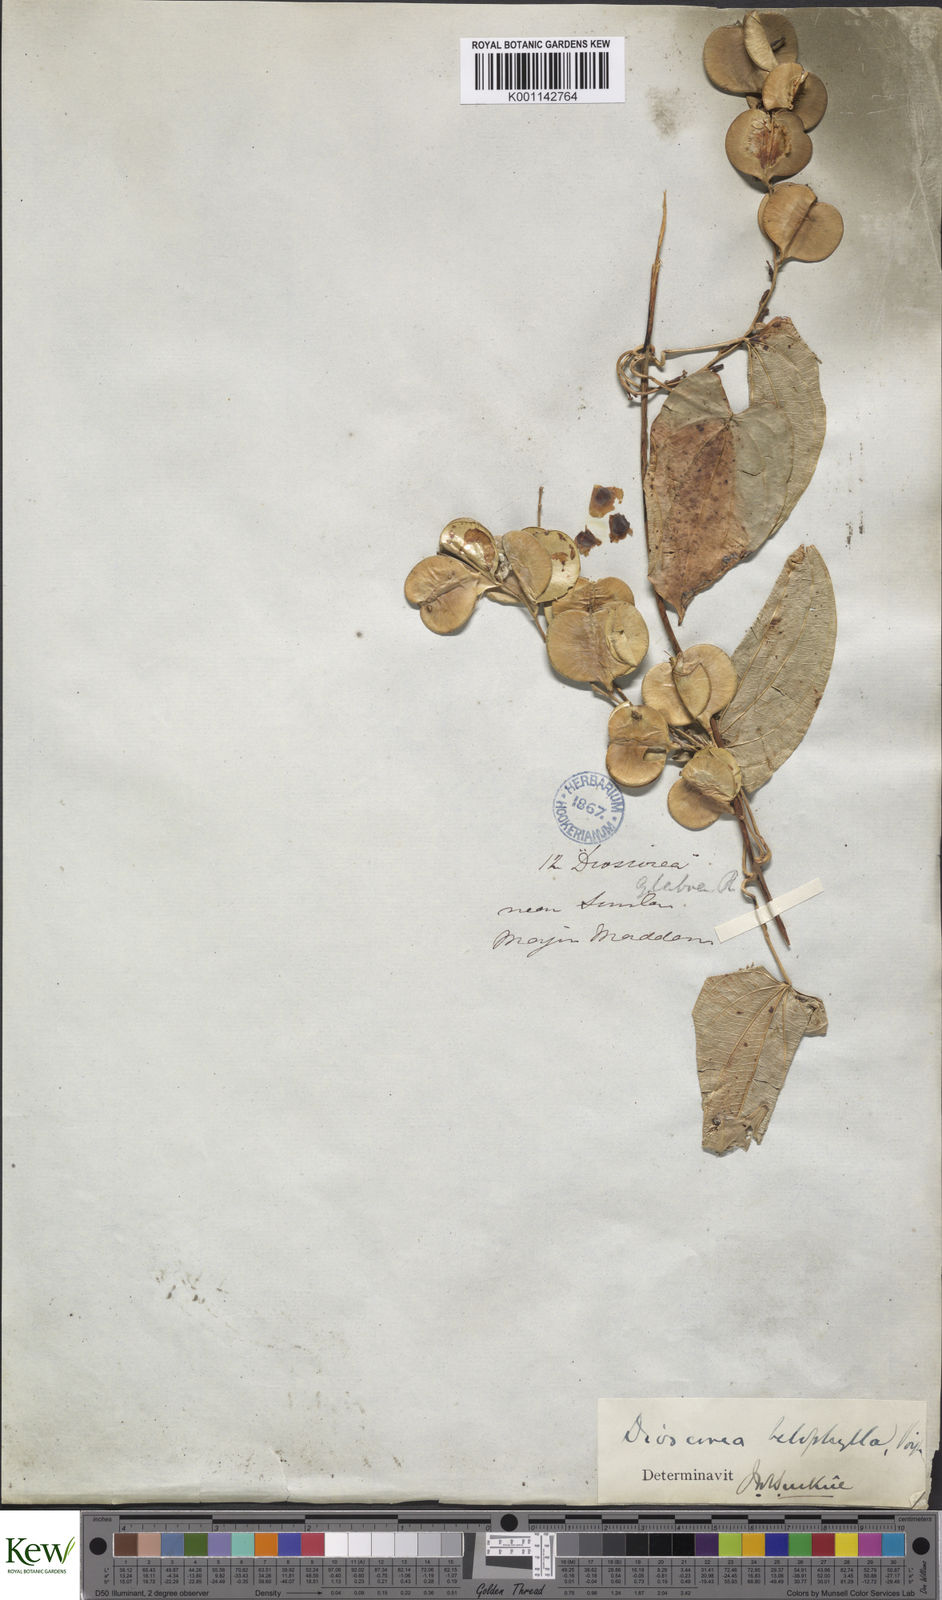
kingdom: Plantae
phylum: Tracheophyta
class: Liliopsida
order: Dioscoreales
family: Dioscoreaceae
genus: Dioscorea
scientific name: Dioscorea belophylla
